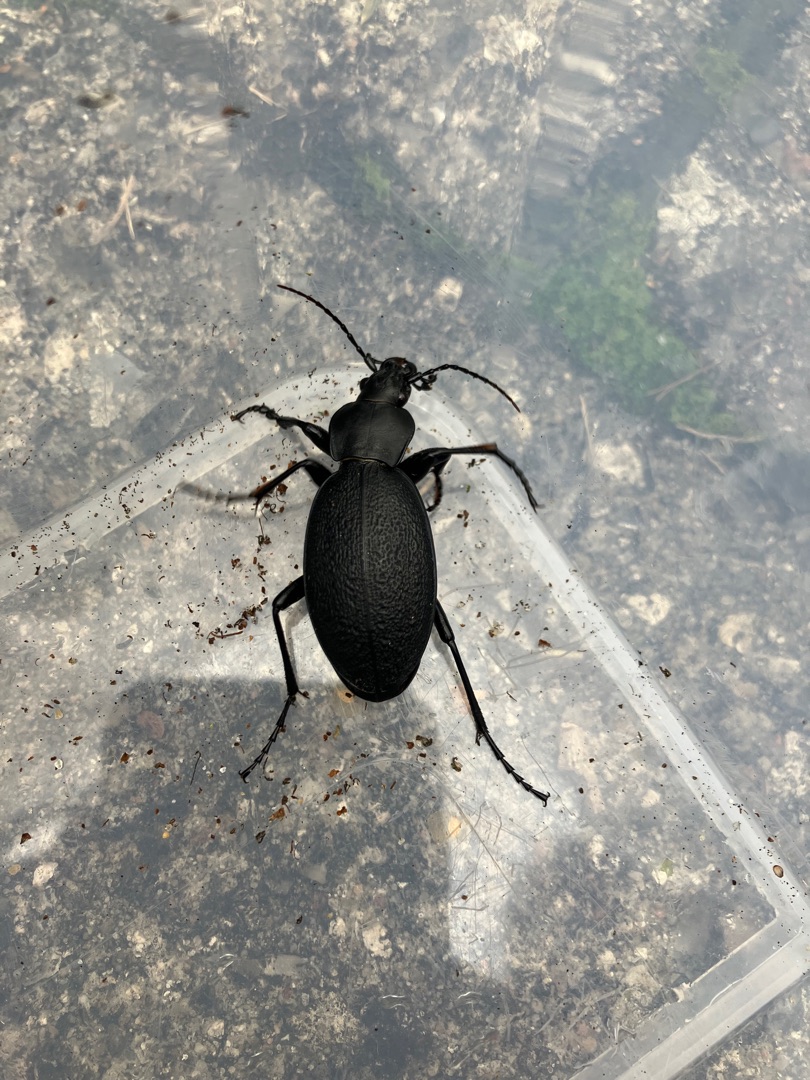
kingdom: Animalia
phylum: Arthropoda
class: Insecta
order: Coleoptera
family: Carabidae
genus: Carabus
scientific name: Carabus coriaceus
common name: Læderløber
